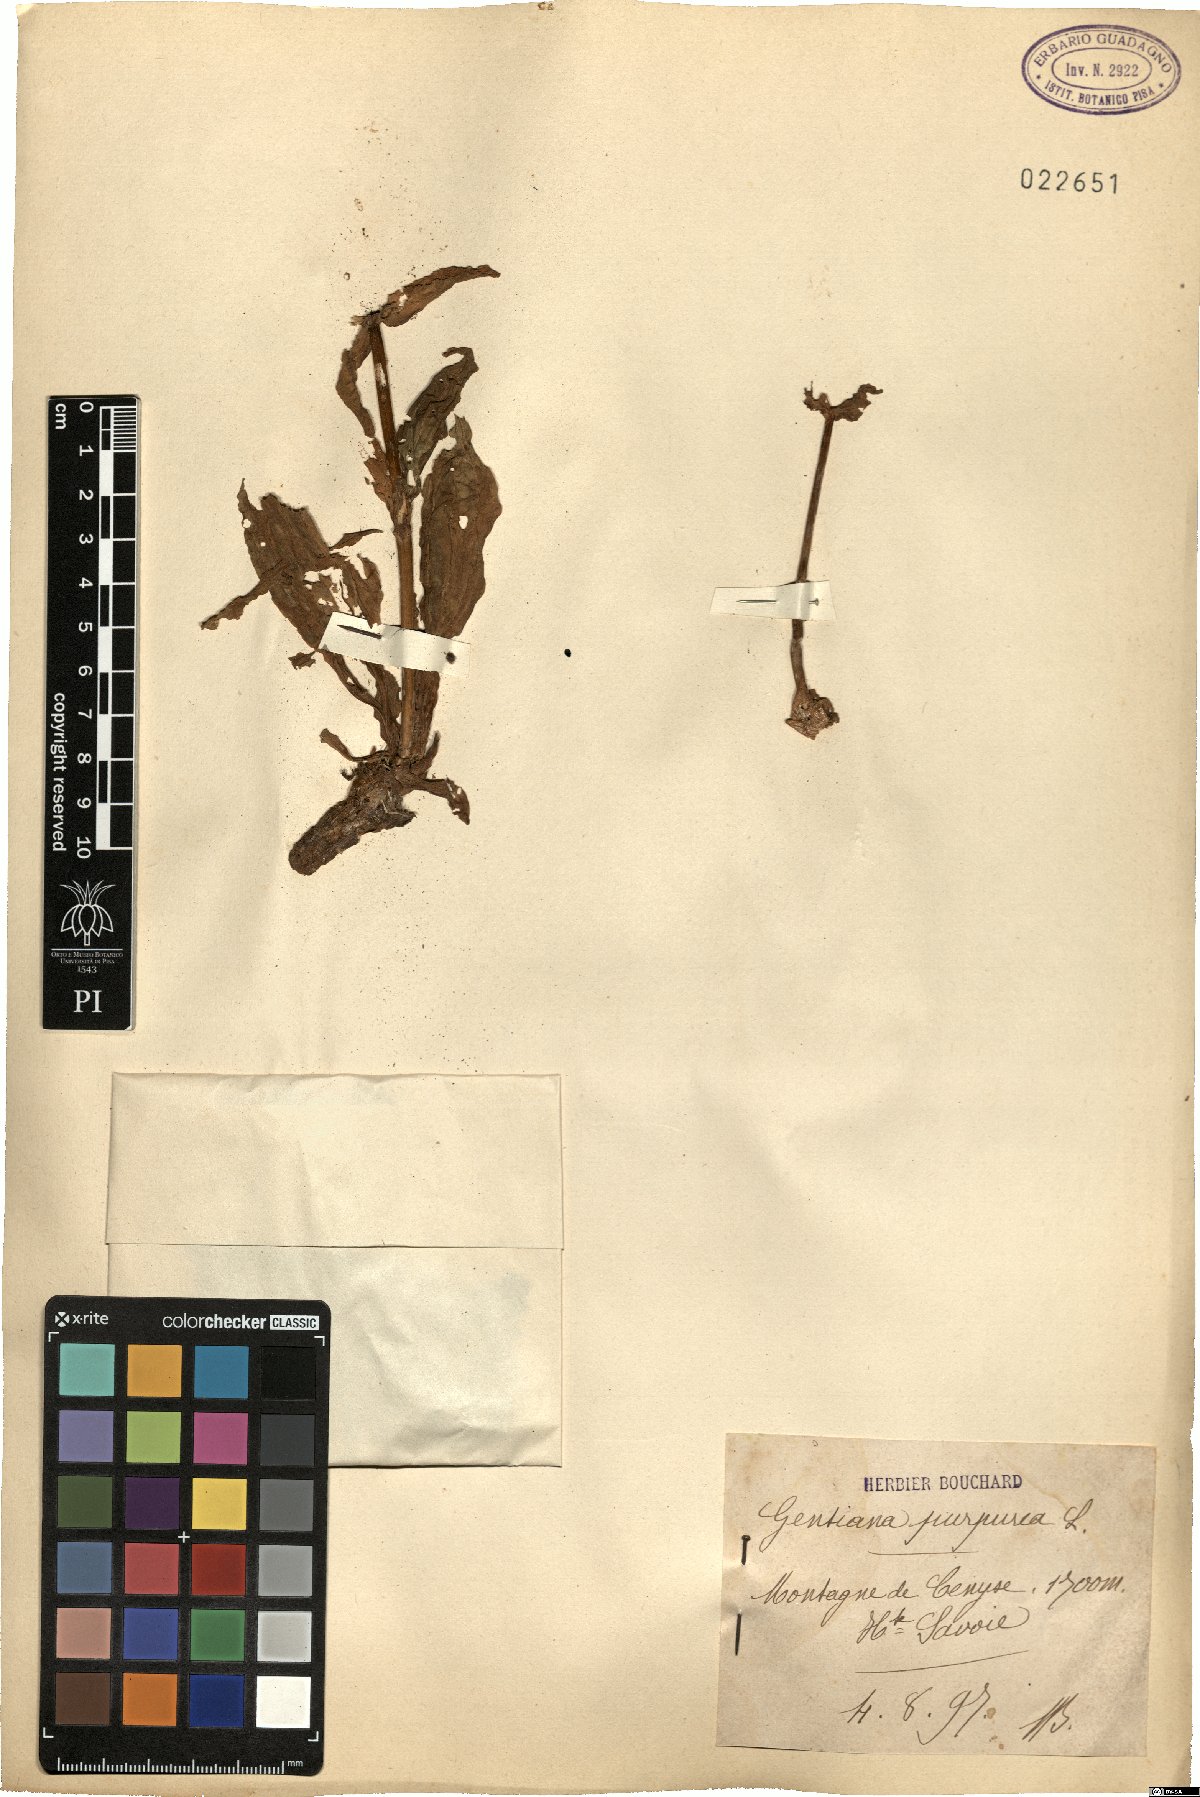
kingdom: Plantae
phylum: Tracheophyta
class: Magnoliopsida
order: Gentianales
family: Gentianaceae
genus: Gentiana
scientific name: Gentiana purpurea
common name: Purple gentian
